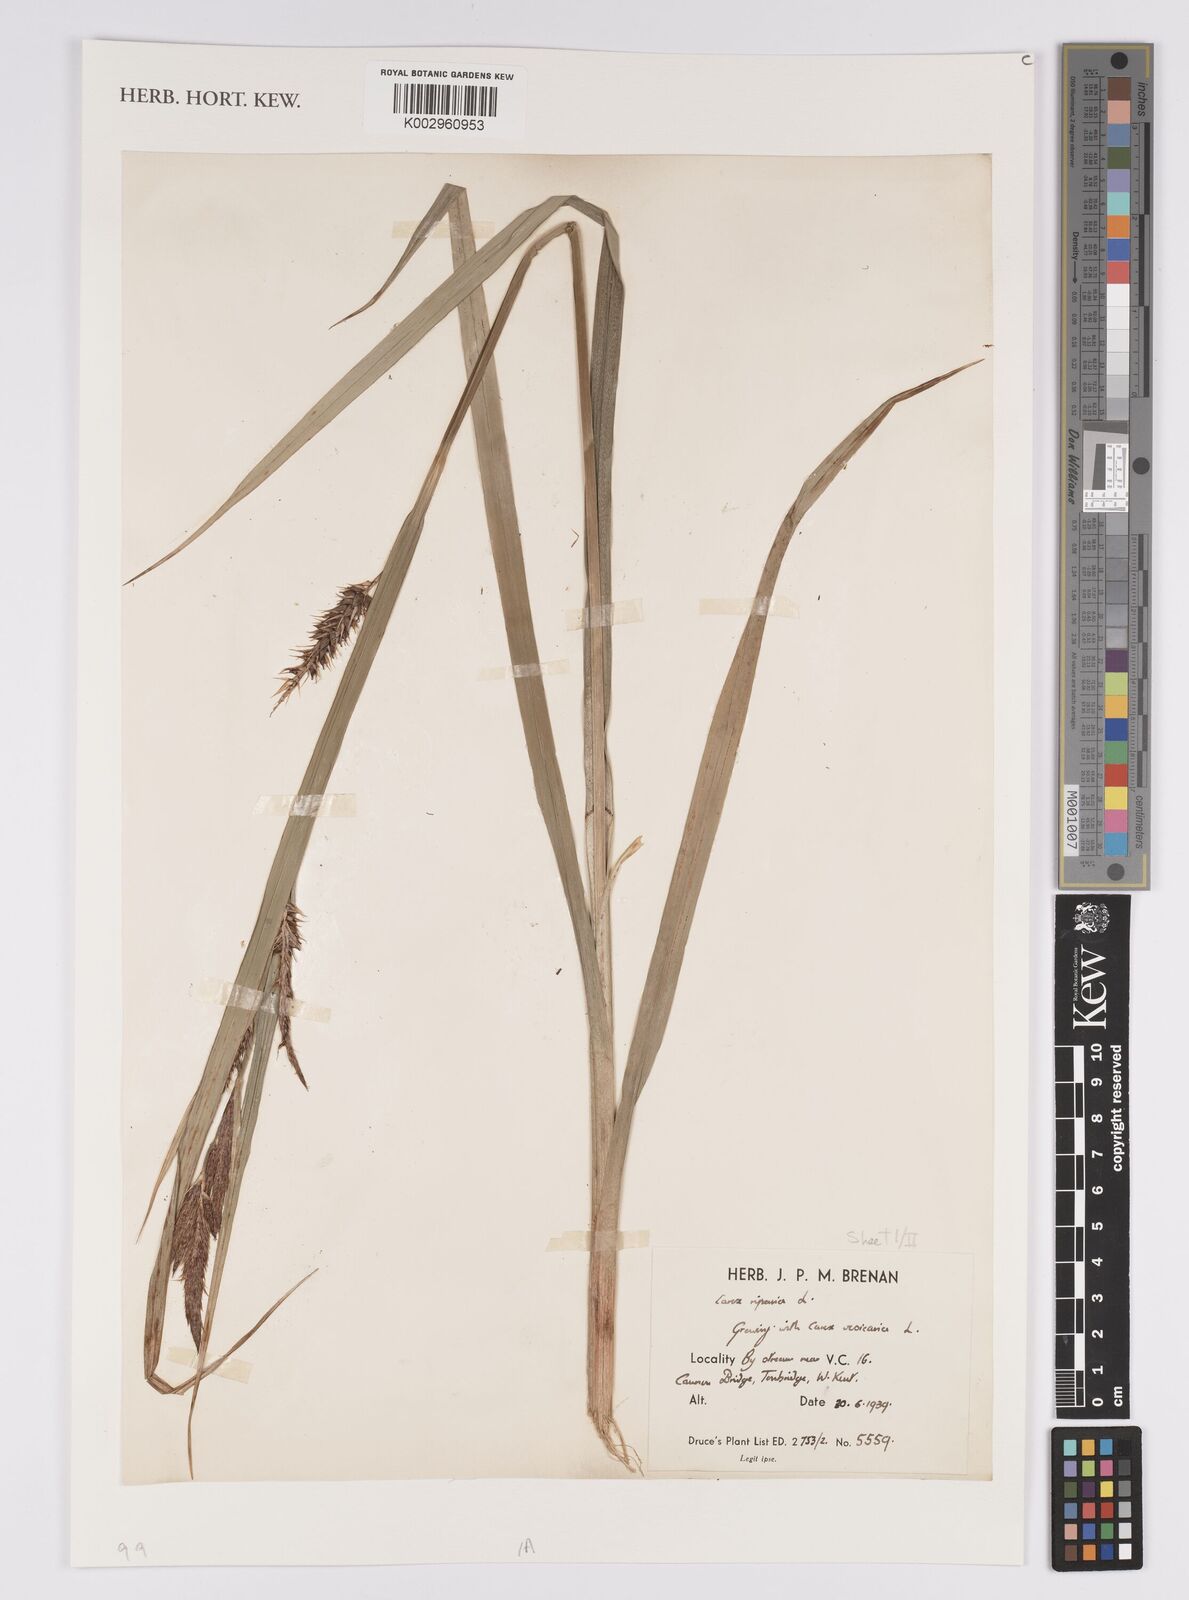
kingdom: Plantae
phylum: Tracheophyta
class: Liliopsida
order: Poales
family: Cyperaceae
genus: Carex
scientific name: Carex riparia
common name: Greater pond-sedge
